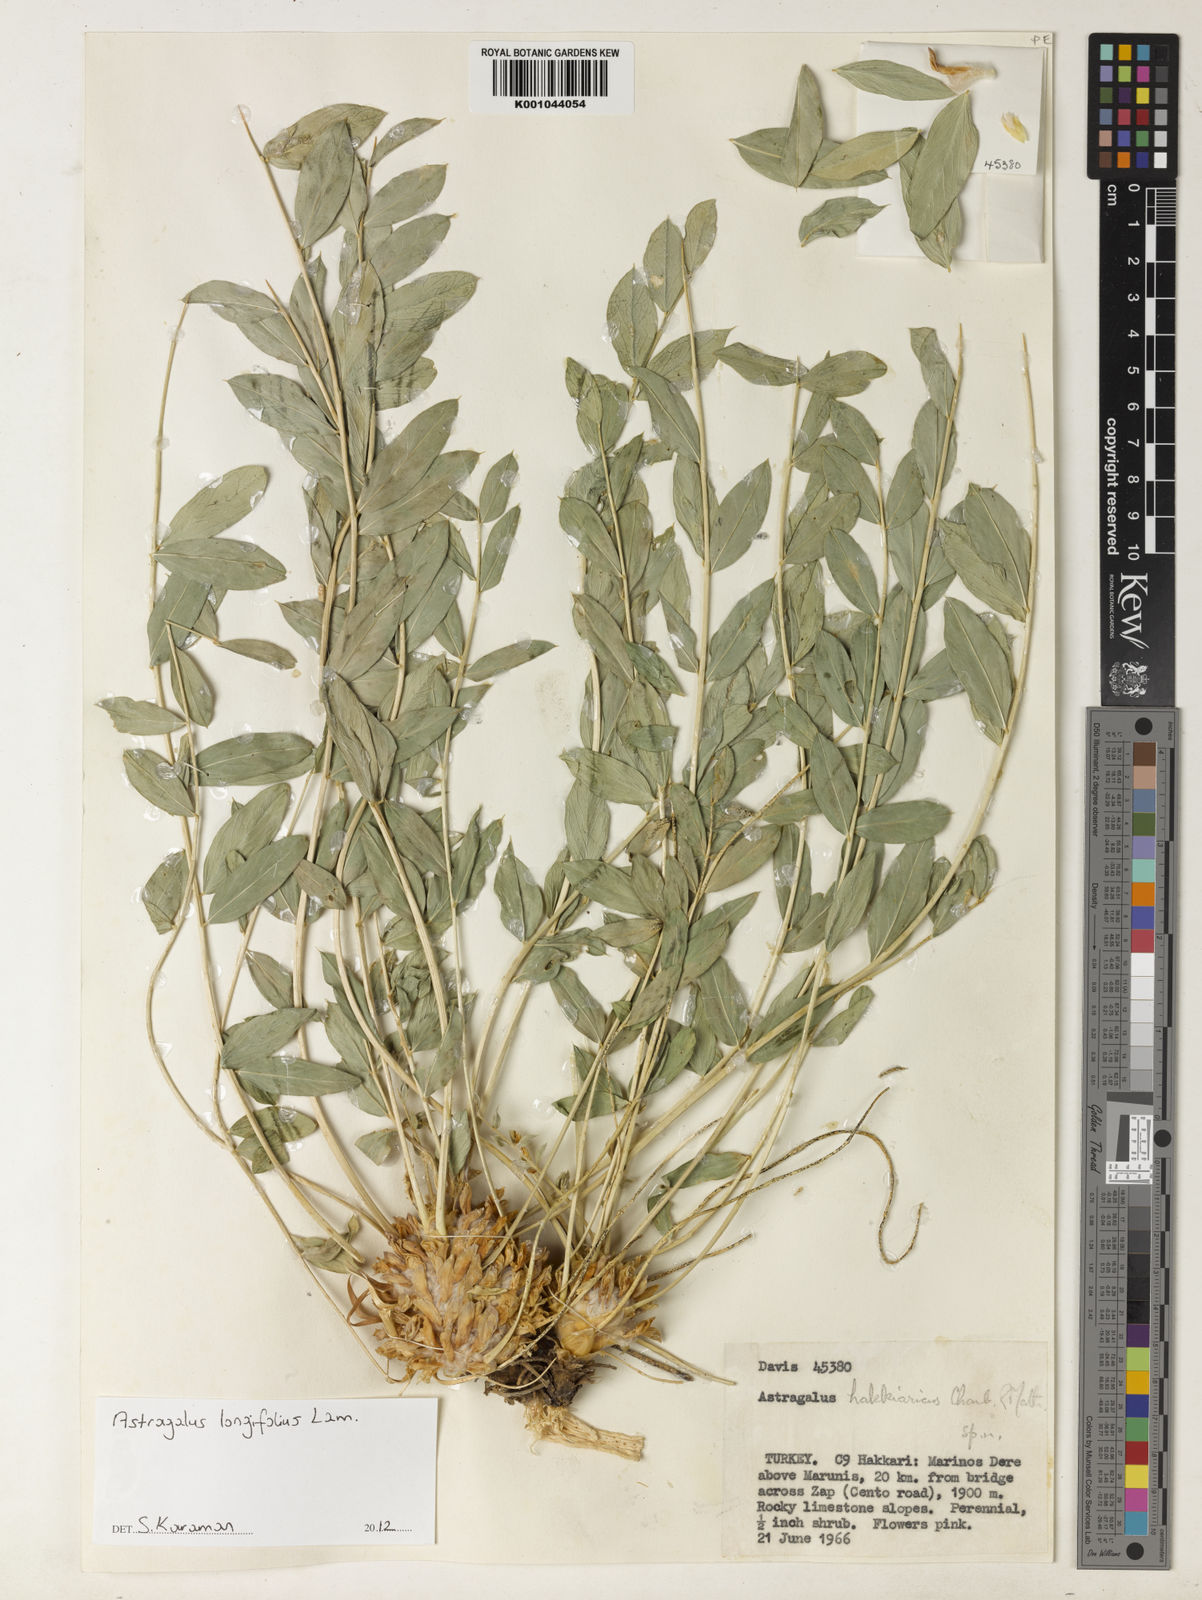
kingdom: Plantae
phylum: Tracheophyta
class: Magnoliopsida
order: Fabales
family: Fabaceae
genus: Astragalus
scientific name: Astragalus
